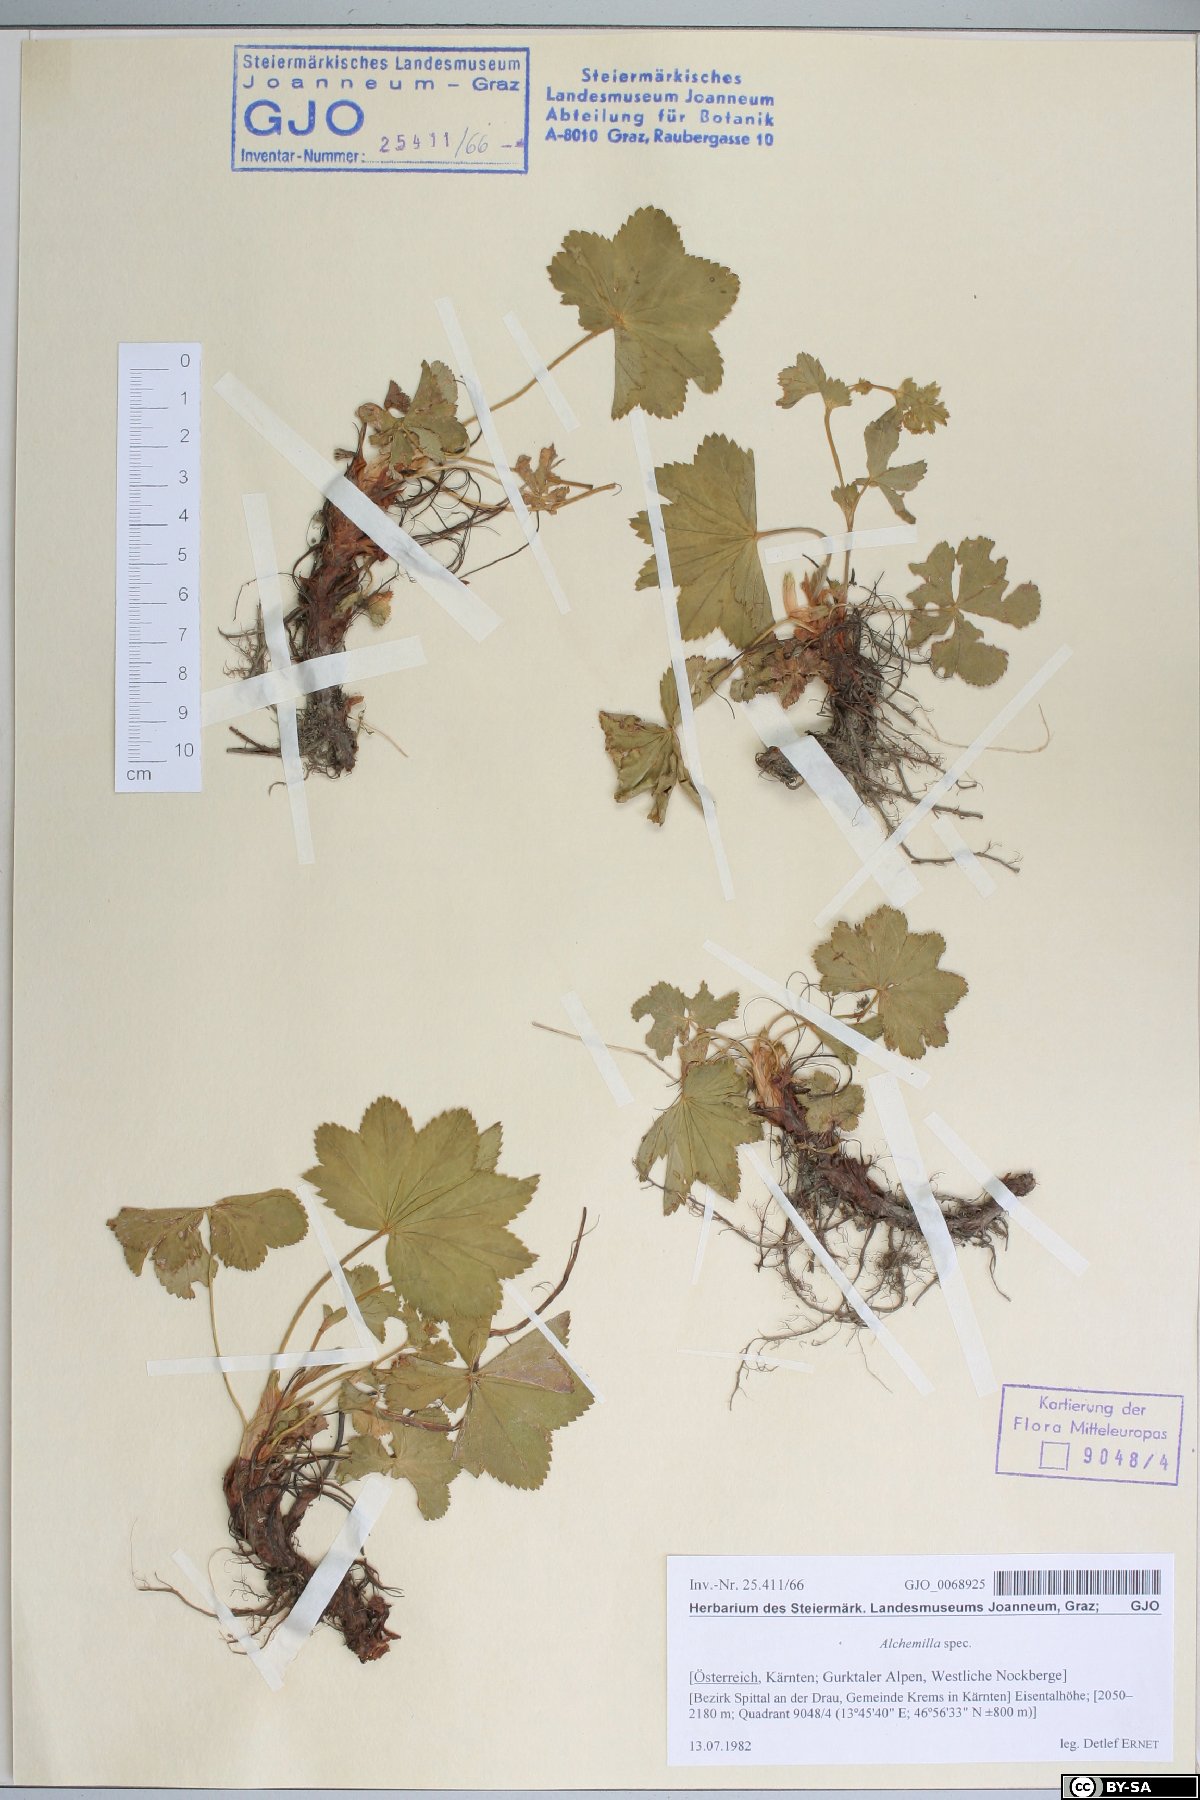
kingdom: Plantae
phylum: Tracheophyta
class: Magnoliopsida
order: Rosales
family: Rosaceae
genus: Alchemilla
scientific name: Alchemilla
